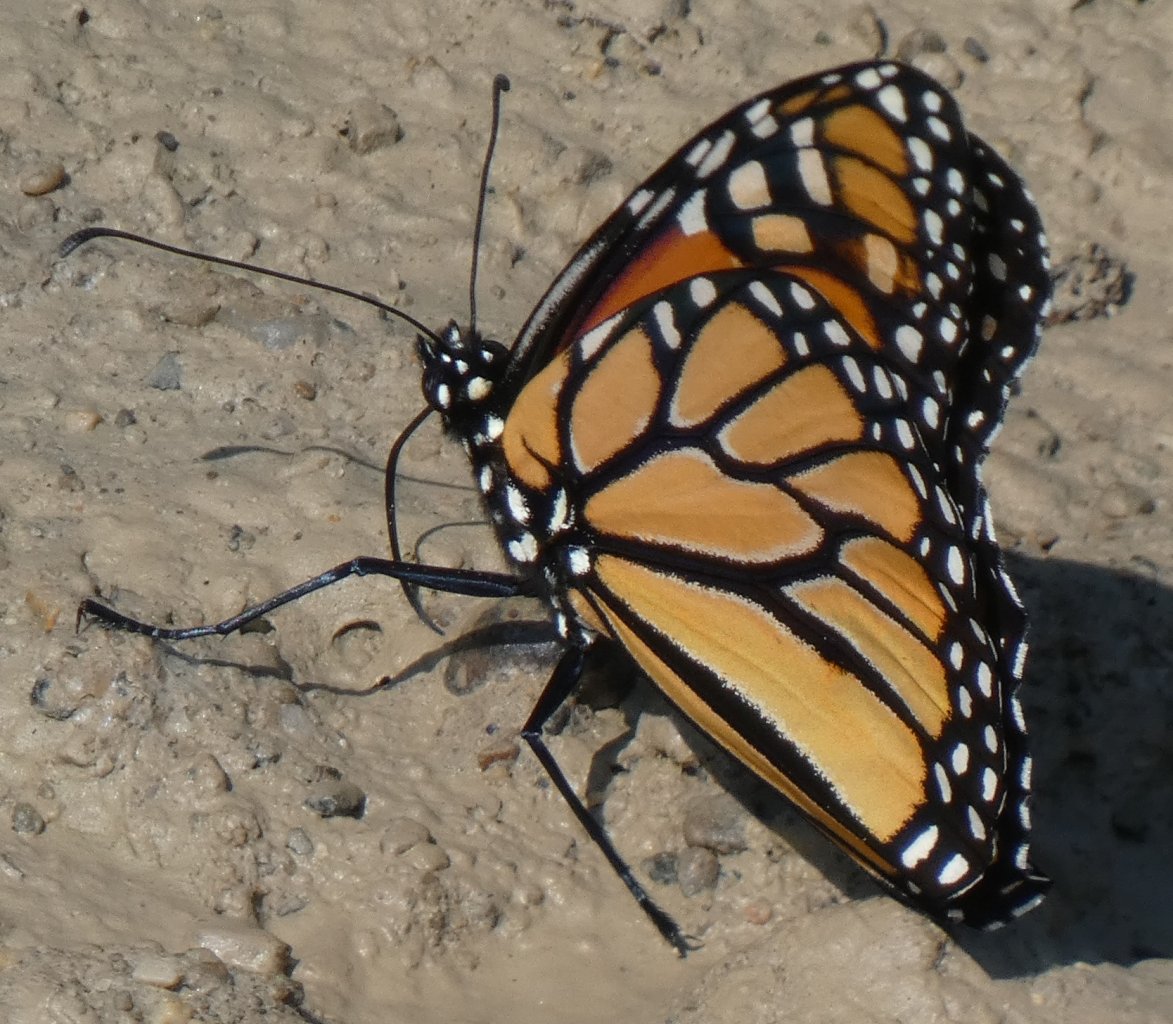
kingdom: Animalia
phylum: Arthropoda
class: Insecta
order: Lepidoptera
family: Nymphalidae
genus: Danaus
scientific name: Danaus plexippus
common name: Monarch
